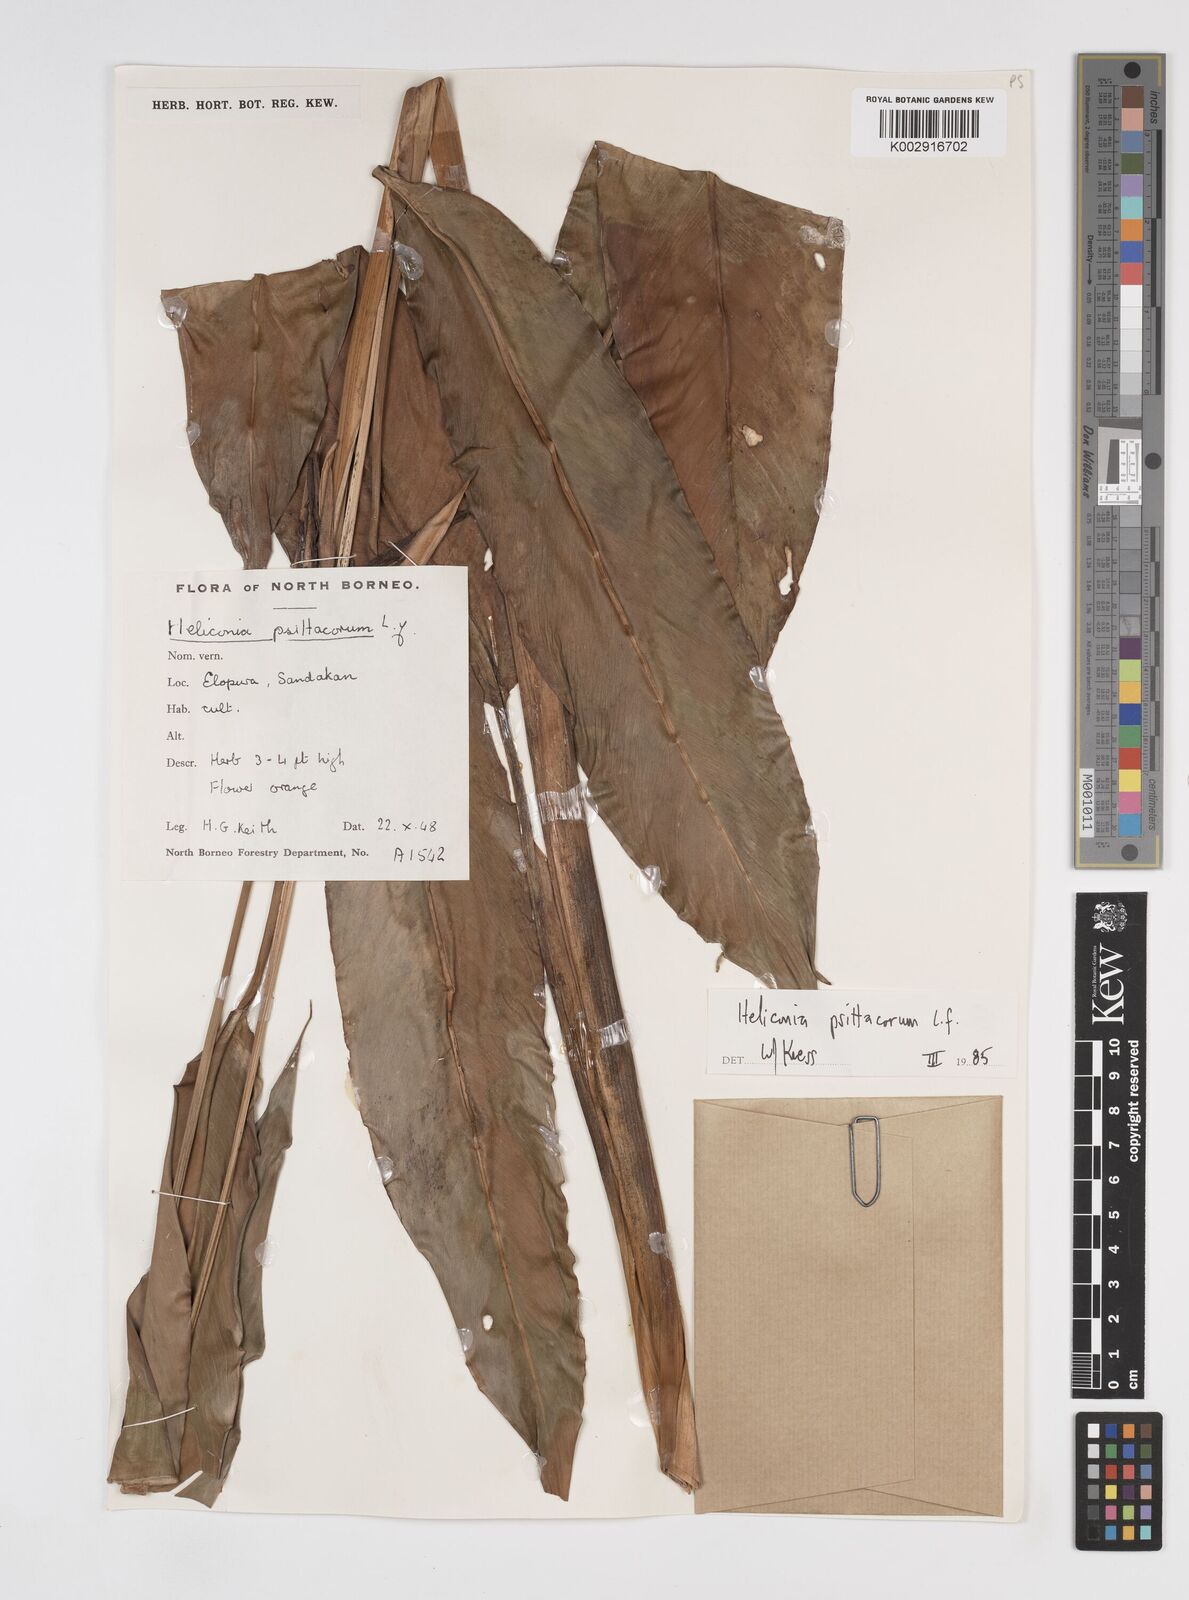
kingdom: Plantae
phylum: Tracheophyta
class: Liliopsida
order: Zingiberales
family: Heliconiaceae
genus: Heliconia
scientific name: Heliconia psittacorum
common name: Parrot's-flower
